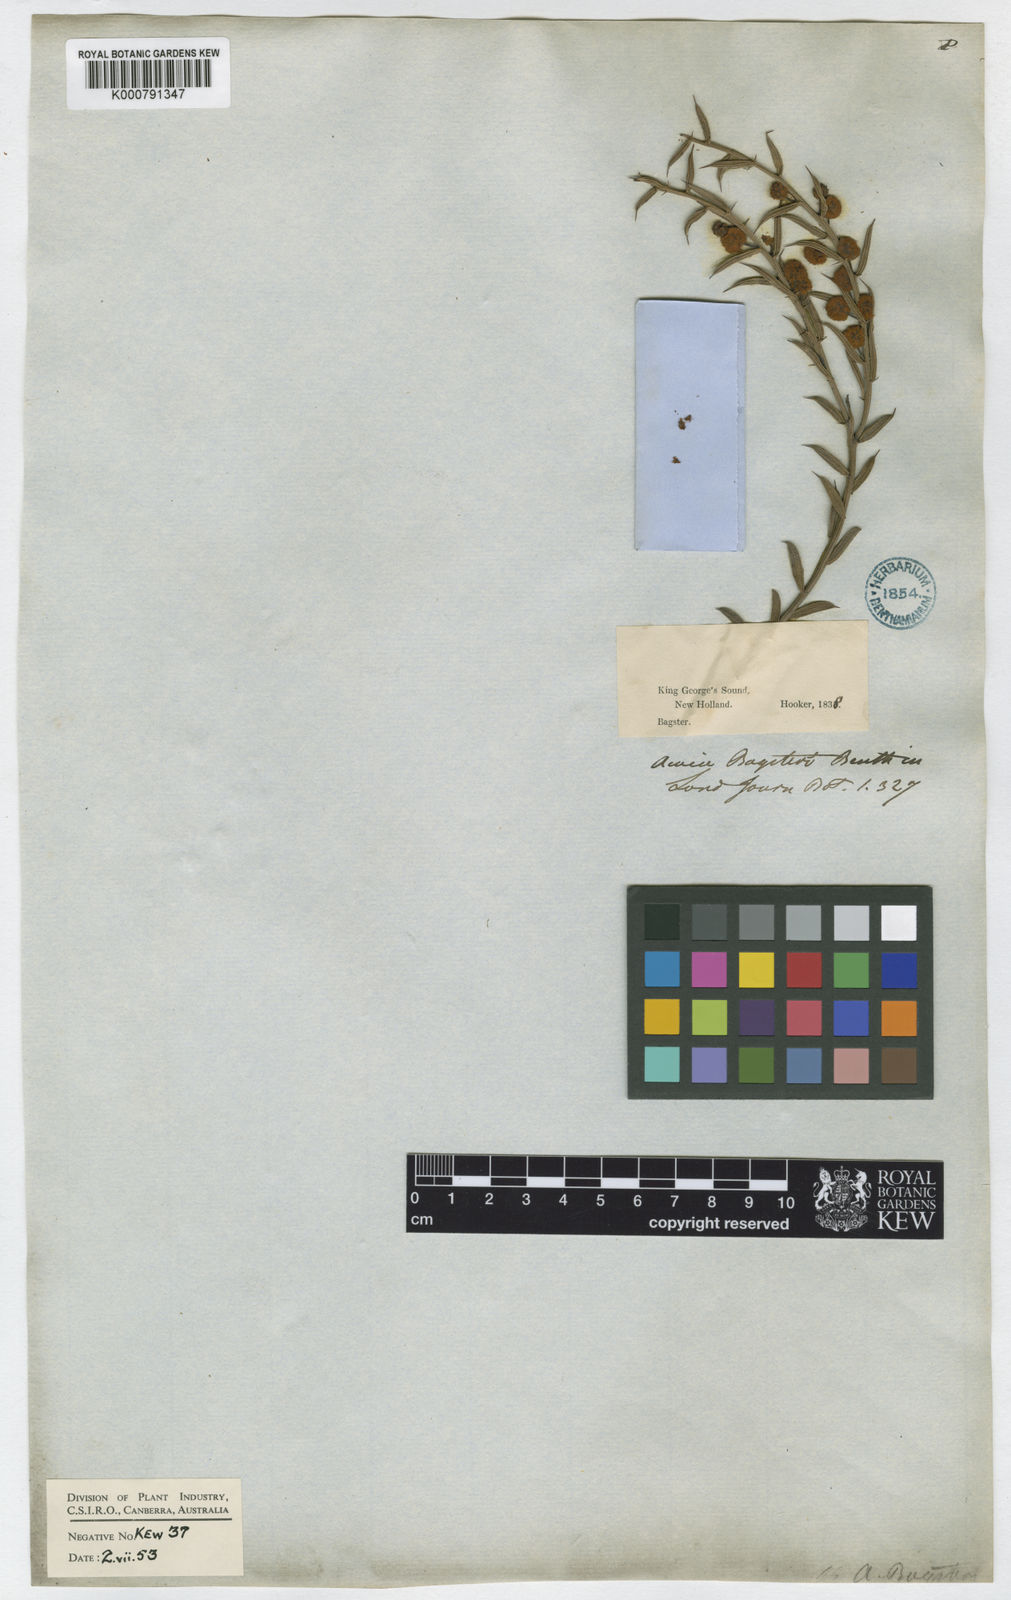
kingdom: Plantae
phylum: Tracheophyta
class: Magnoliopsida
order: Fabales
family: Fabaceae
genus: Acacia
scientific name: Acacia baxteri
